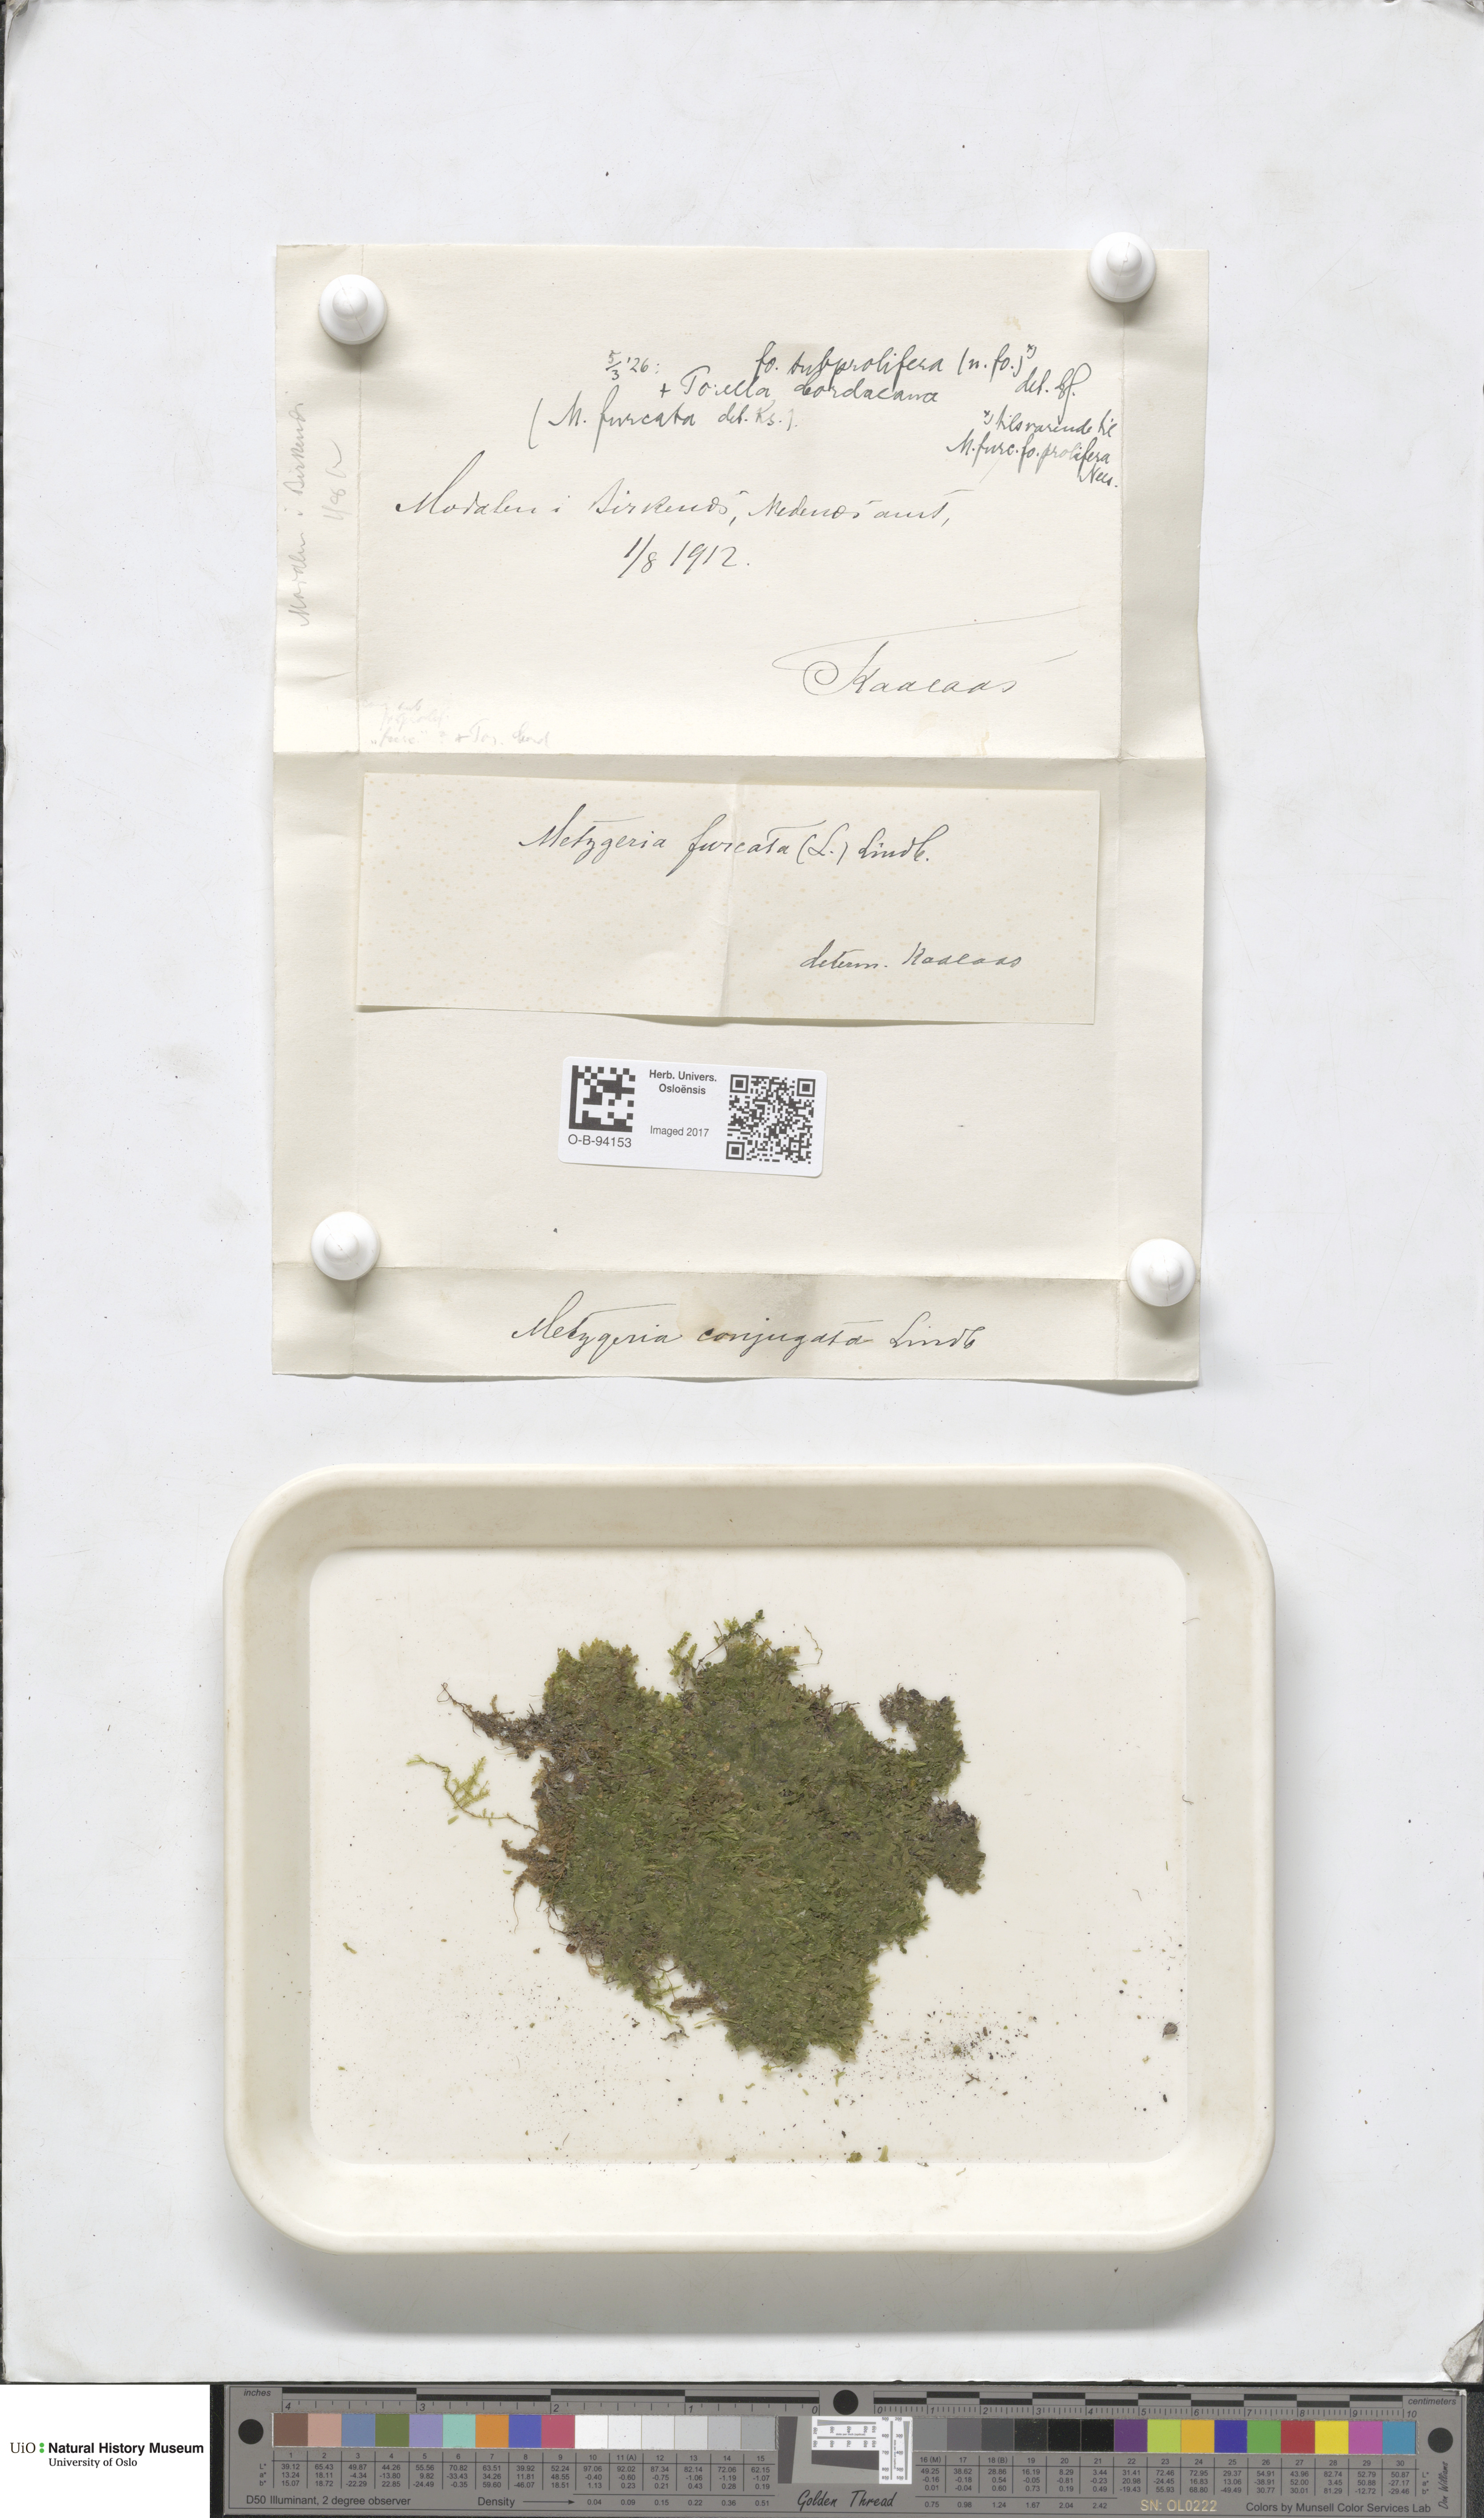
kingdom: Plantae
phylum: Marchantiophyta
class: Jungermanniopsida
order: Metzgeriales
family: Metzgeriaceae
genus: Metzgeria
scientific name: Metzgeria conjugata
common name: Rock veilwort
